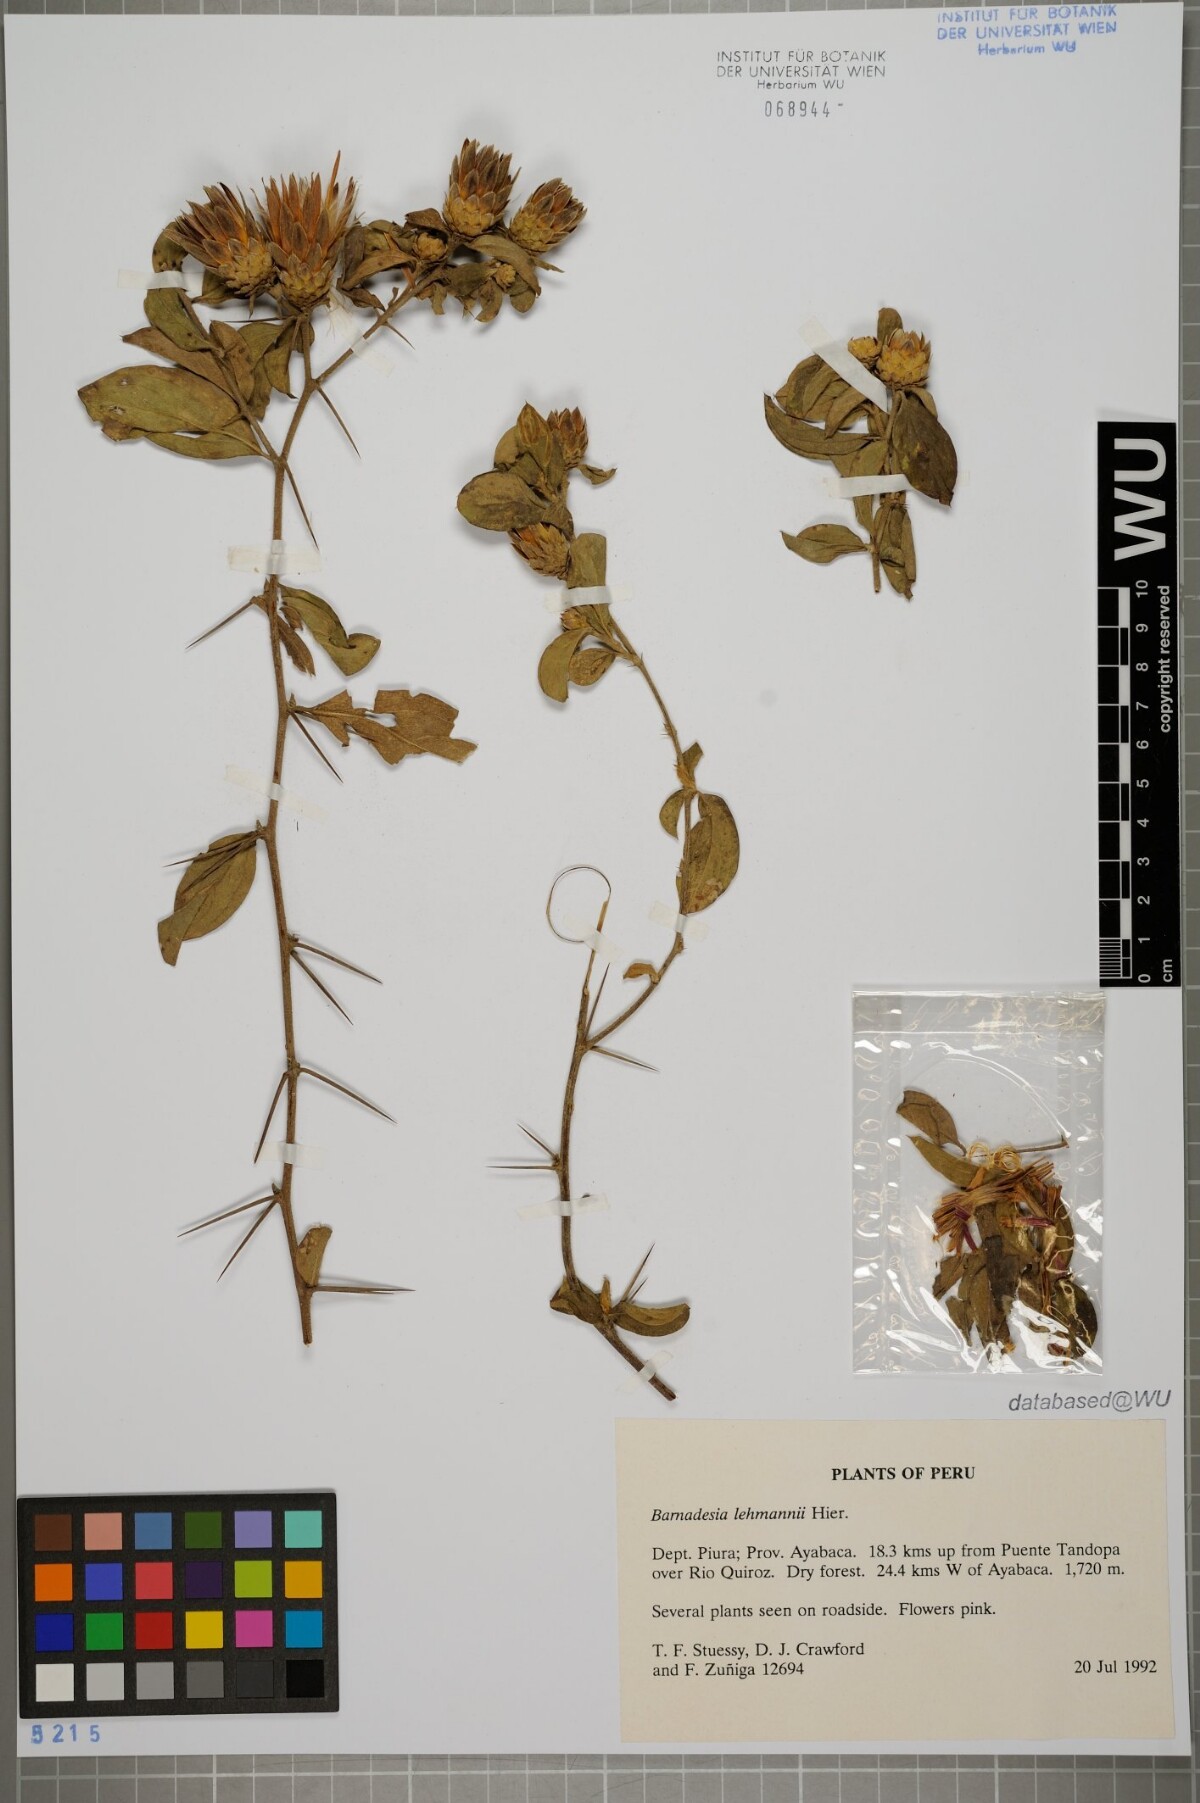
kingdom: Plantae
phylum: Tracheophyta
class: Magnoliopsida
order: Asterales
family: Asteraceae
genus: Barnadesia
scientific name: Barnadesia lehmannii
